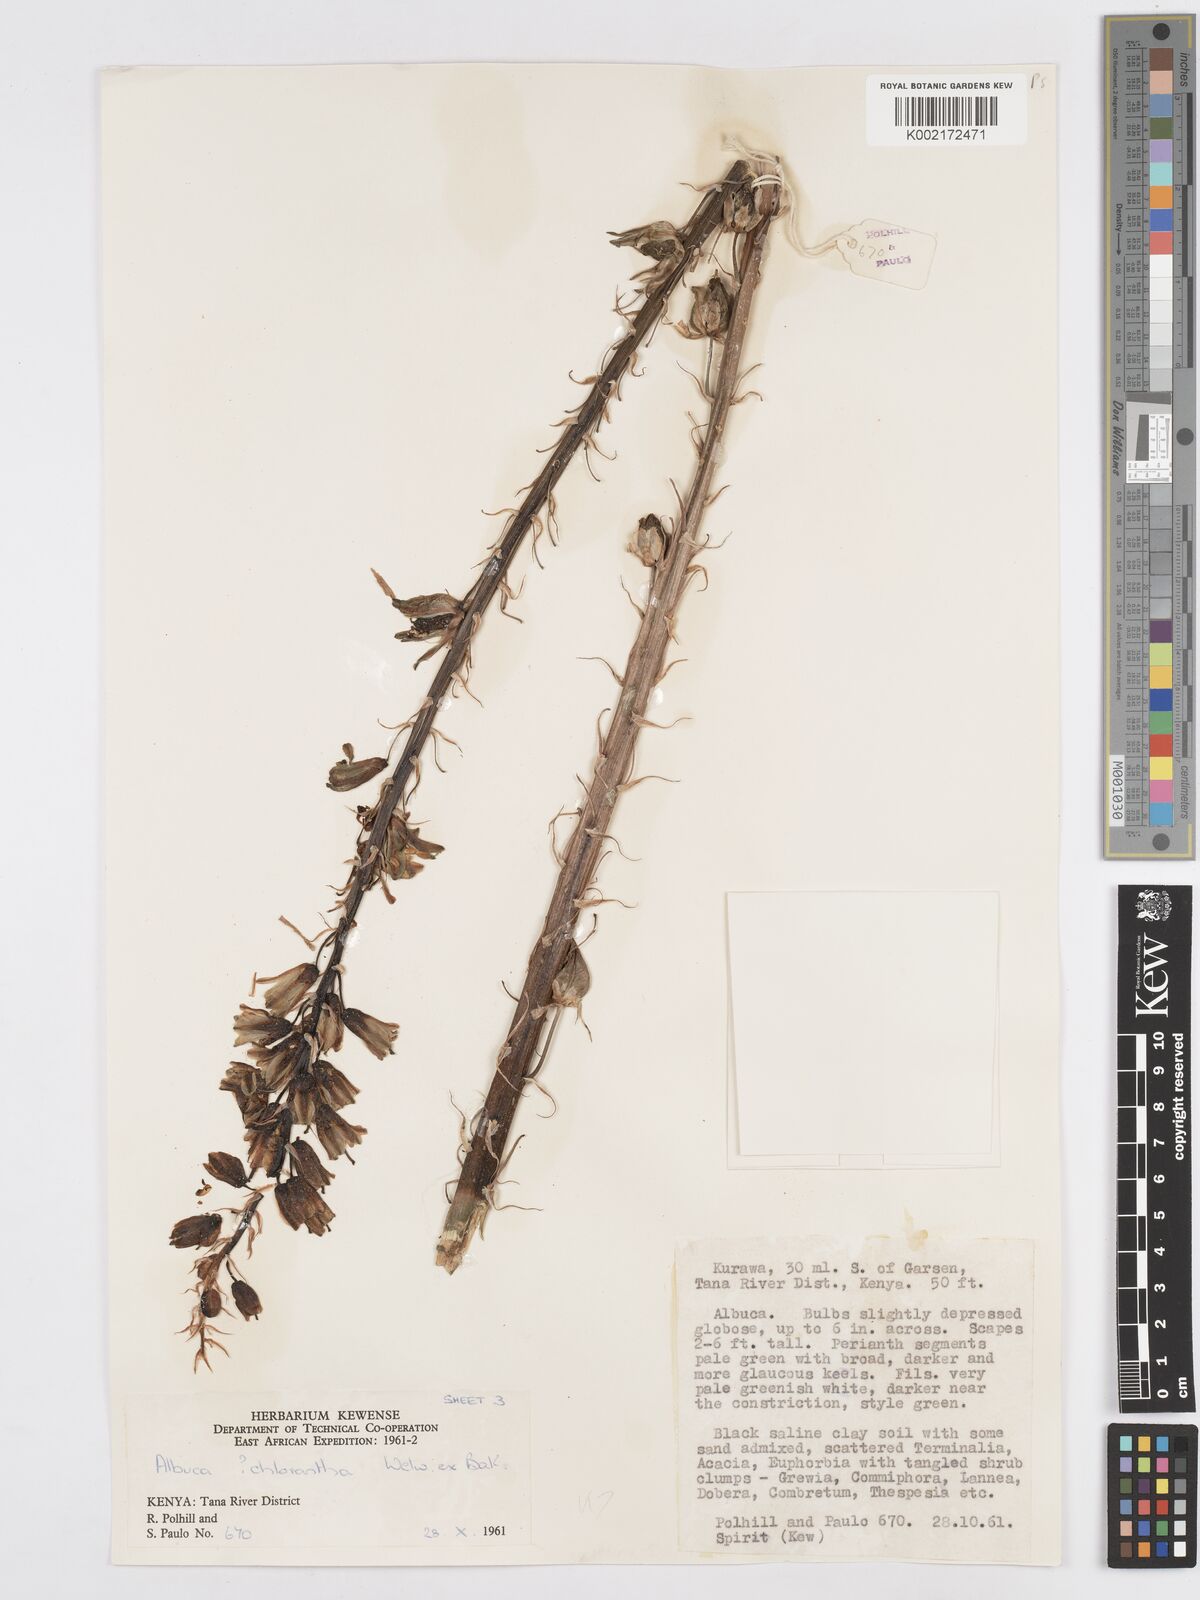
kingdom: Plantae
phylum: Tracheophyta
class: Liliopsida
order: Asparagales
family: Asparagaceae
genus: Albuca
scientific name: Albuca abyssinica
